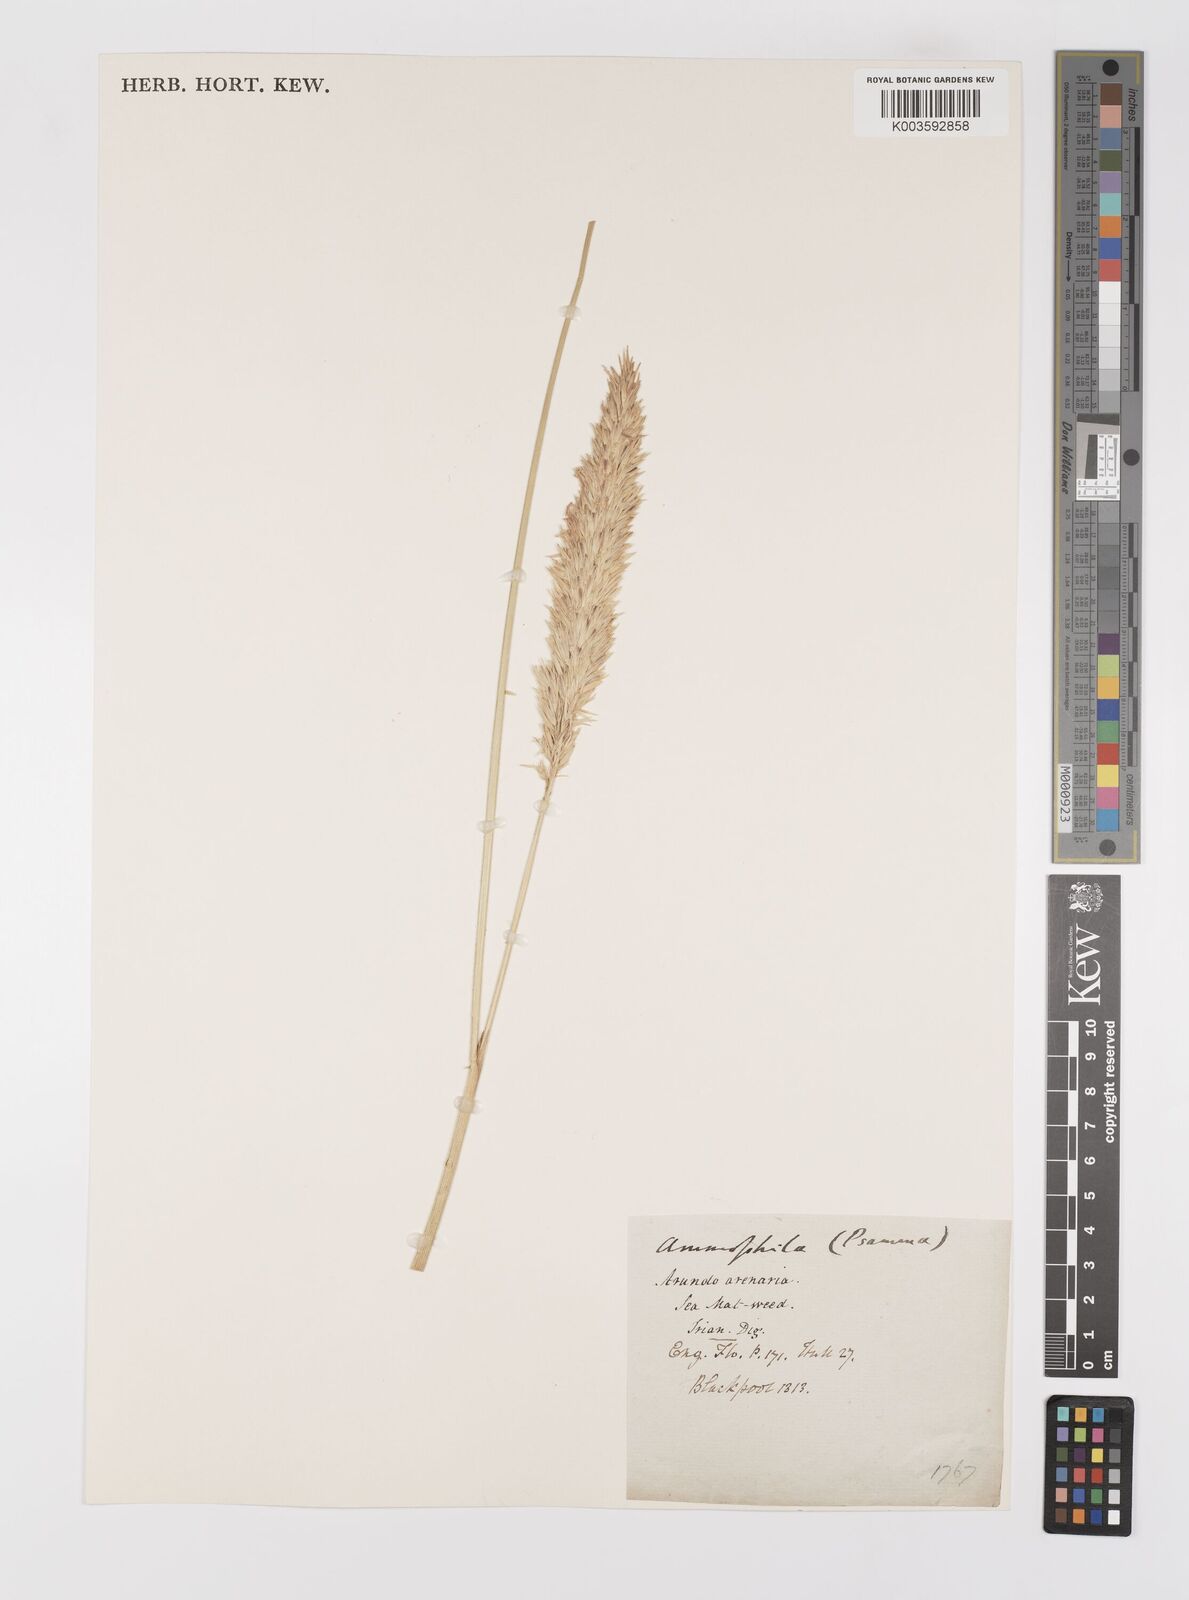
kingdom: Plantae
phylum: Tracheophyta
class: Liliopsida
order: Poales
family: Poaceae
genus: Calamagrostis
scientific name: Calamagrostis arenaria
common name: European beachgrass
